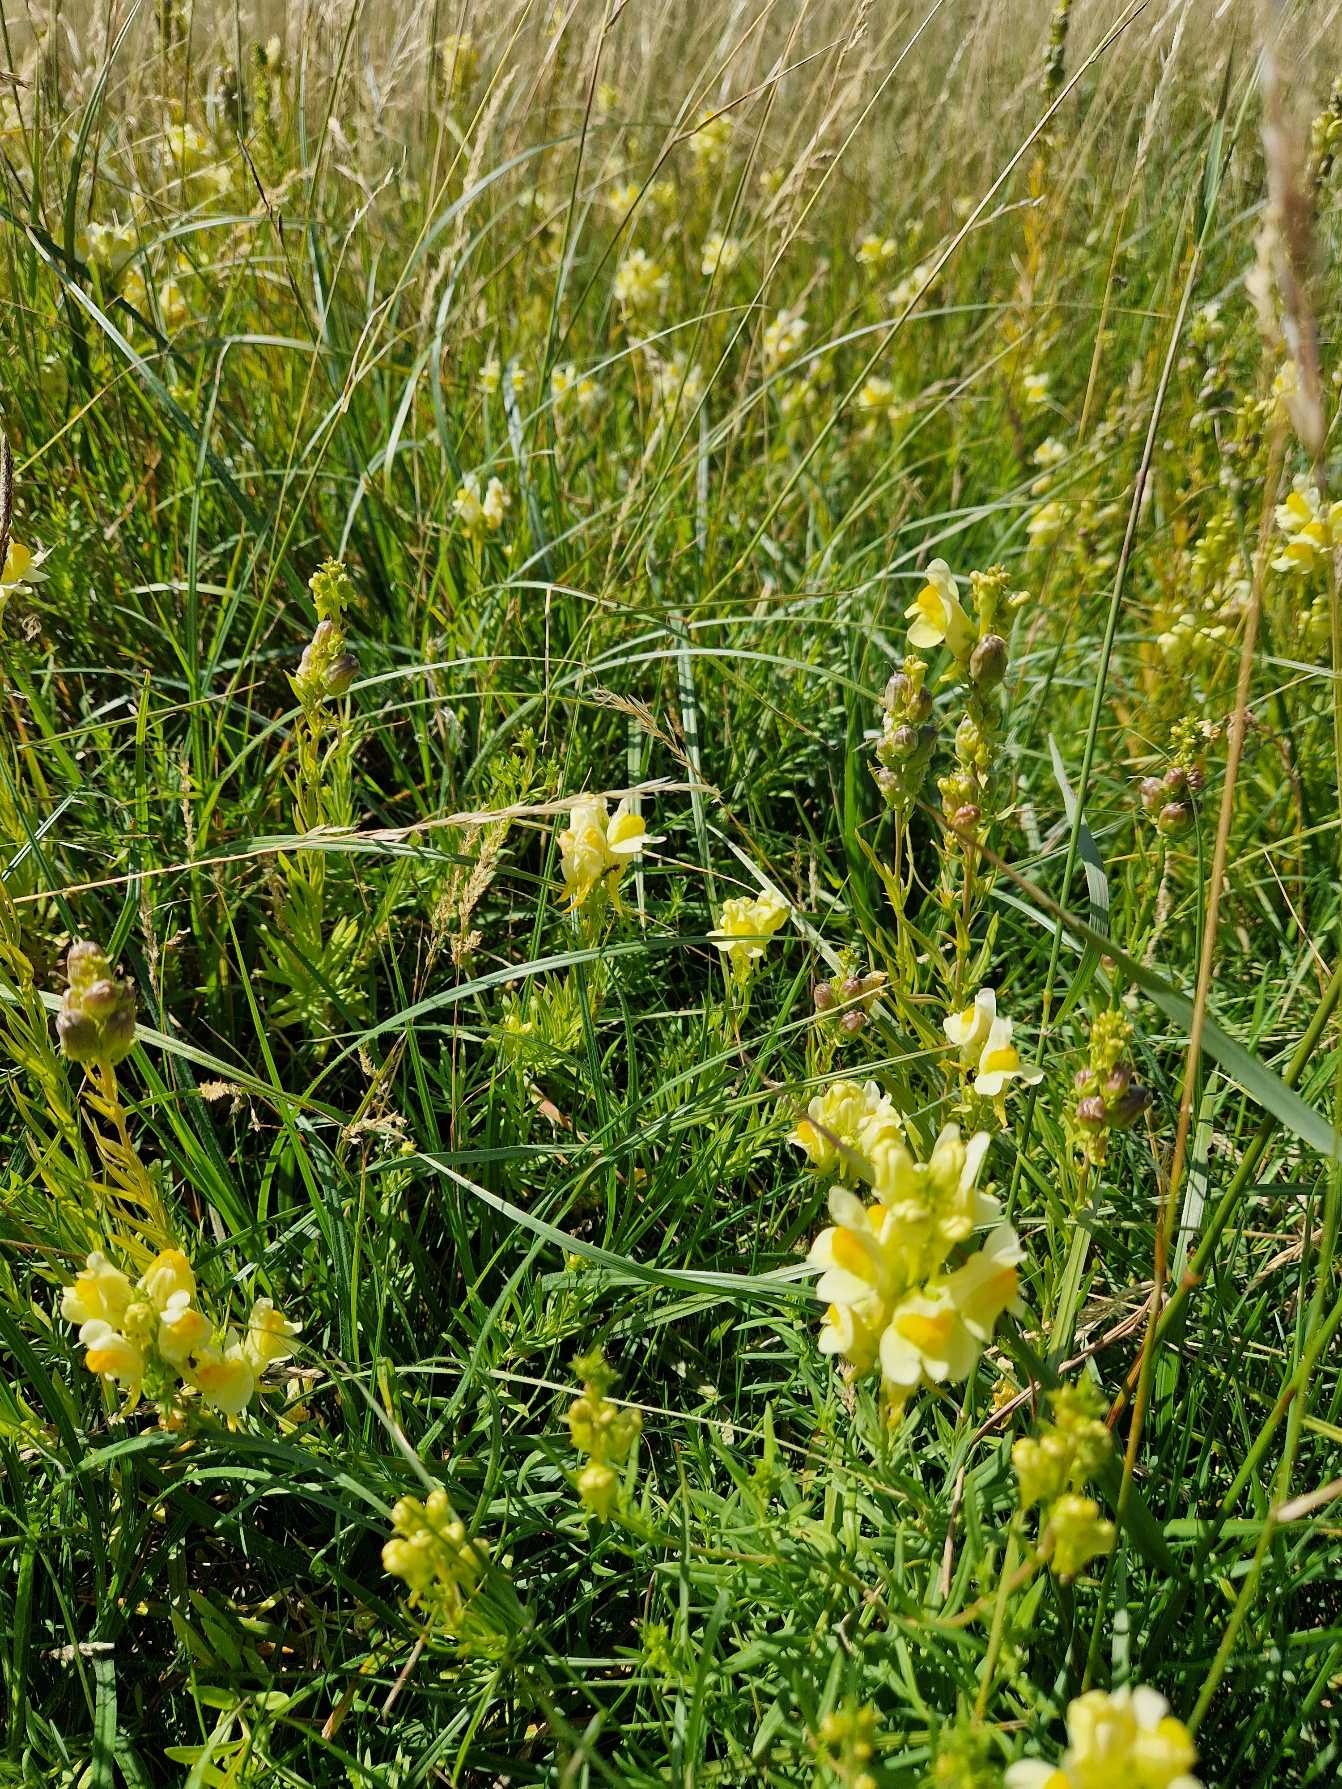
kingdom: Plantae
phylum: Tracheophyta
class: Magnoliopsida
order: Lamiales
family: Plantaginaceae
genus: Linaria
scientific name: Linaria vulgaris
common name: Almindelig torskemund
